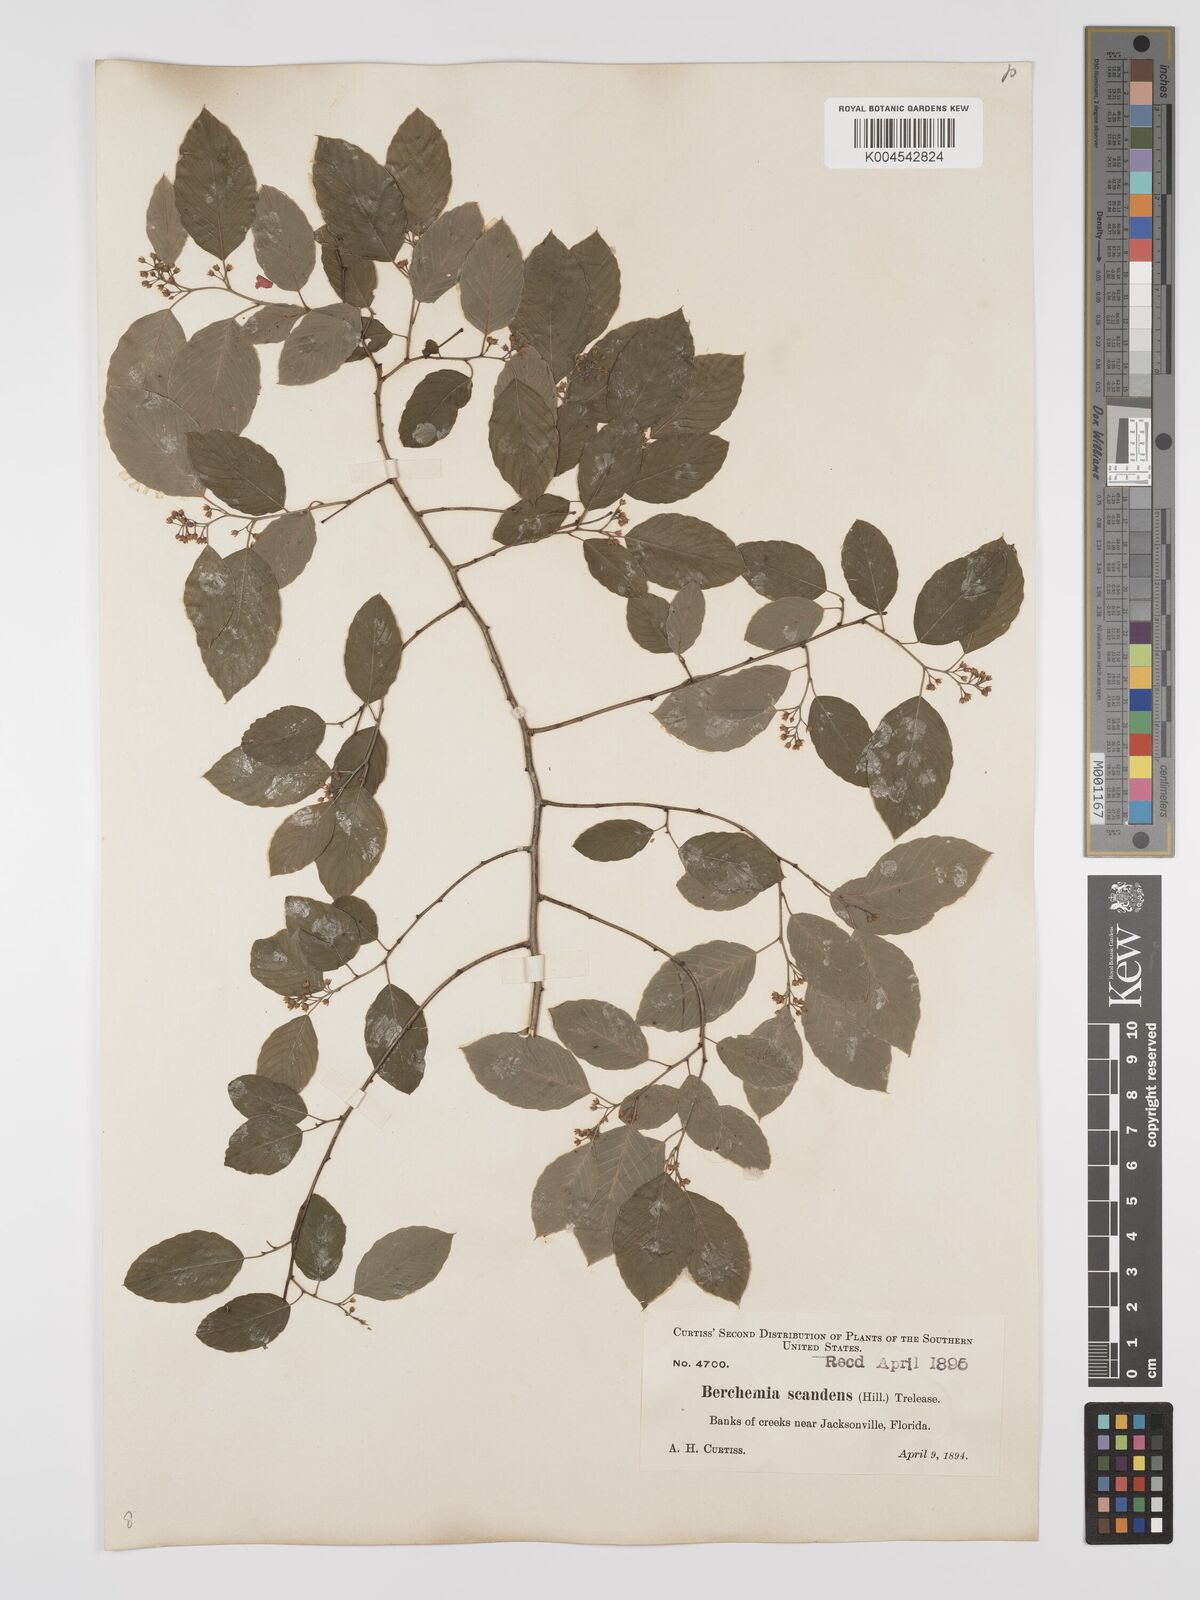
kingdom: Plantae
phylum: Tracheophyta
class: Magnoliopsida
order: Rosales
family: Rhamnaceae
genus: Berchemia
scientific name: Berchemia scandens
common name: Supplejack
